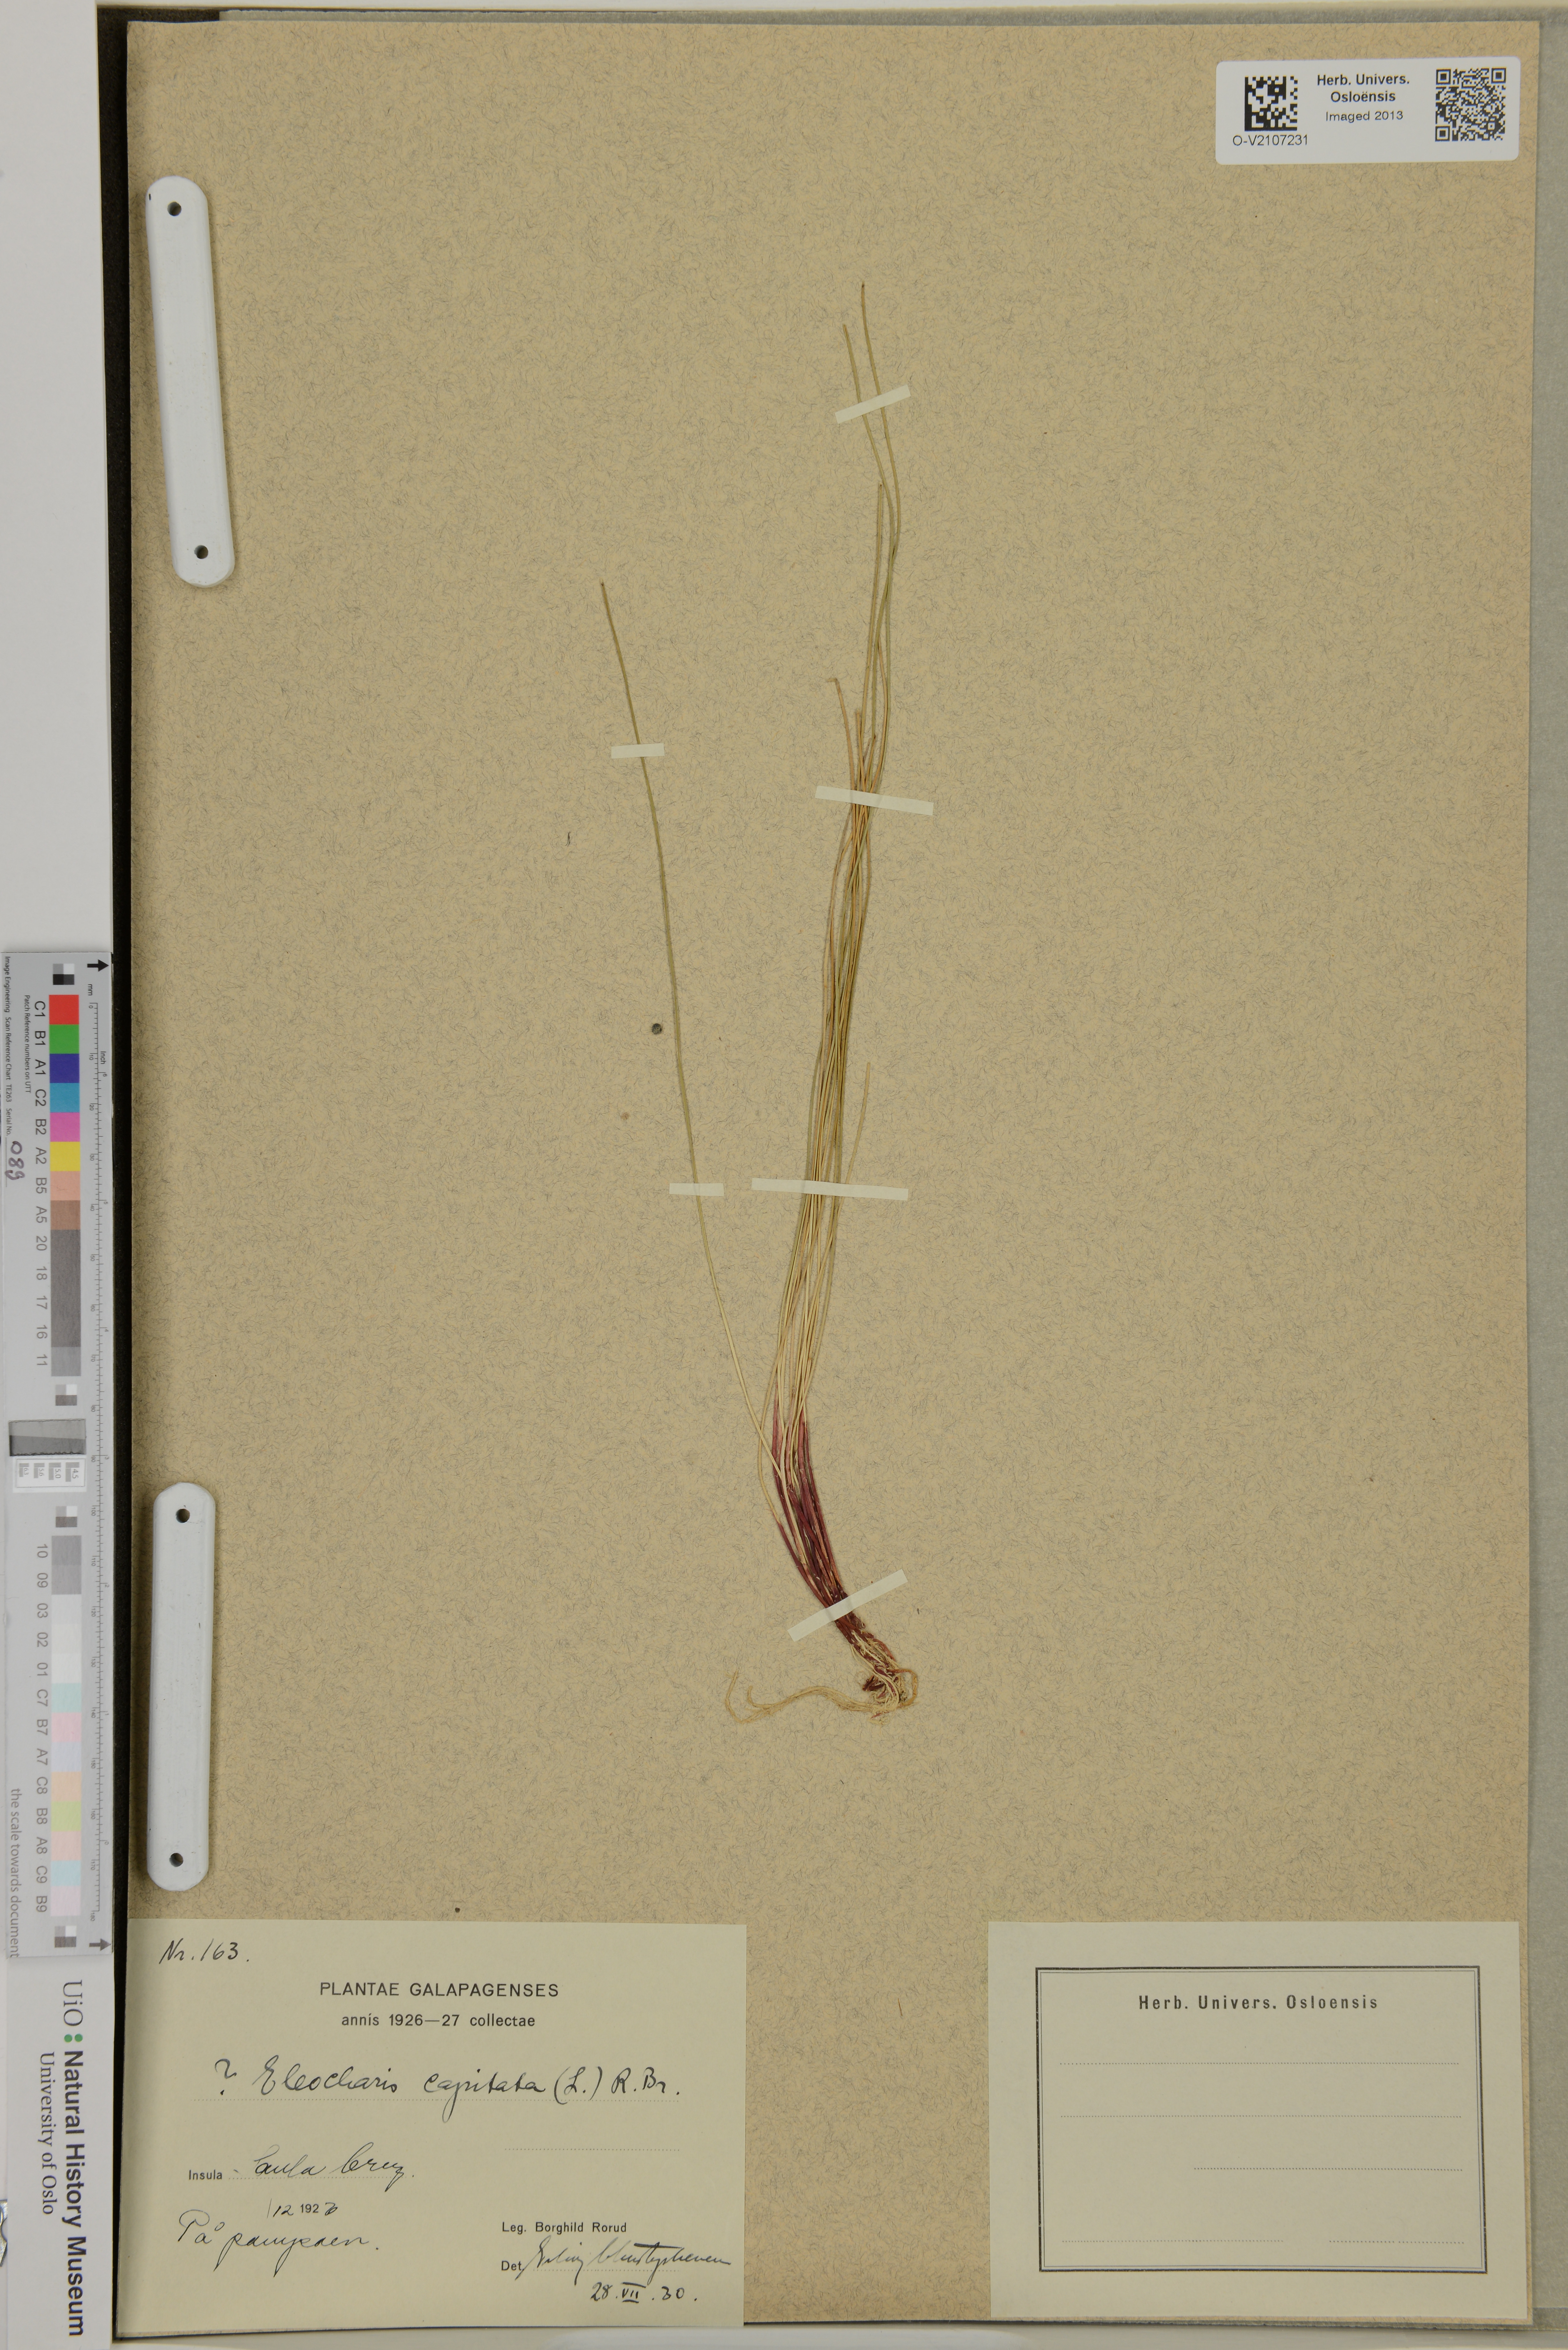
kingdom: Plantae
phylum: Tracheophyta
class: Liliopsida
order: Poales
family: Cyperaceae
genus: Eleocharis
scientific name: Eleocharis
